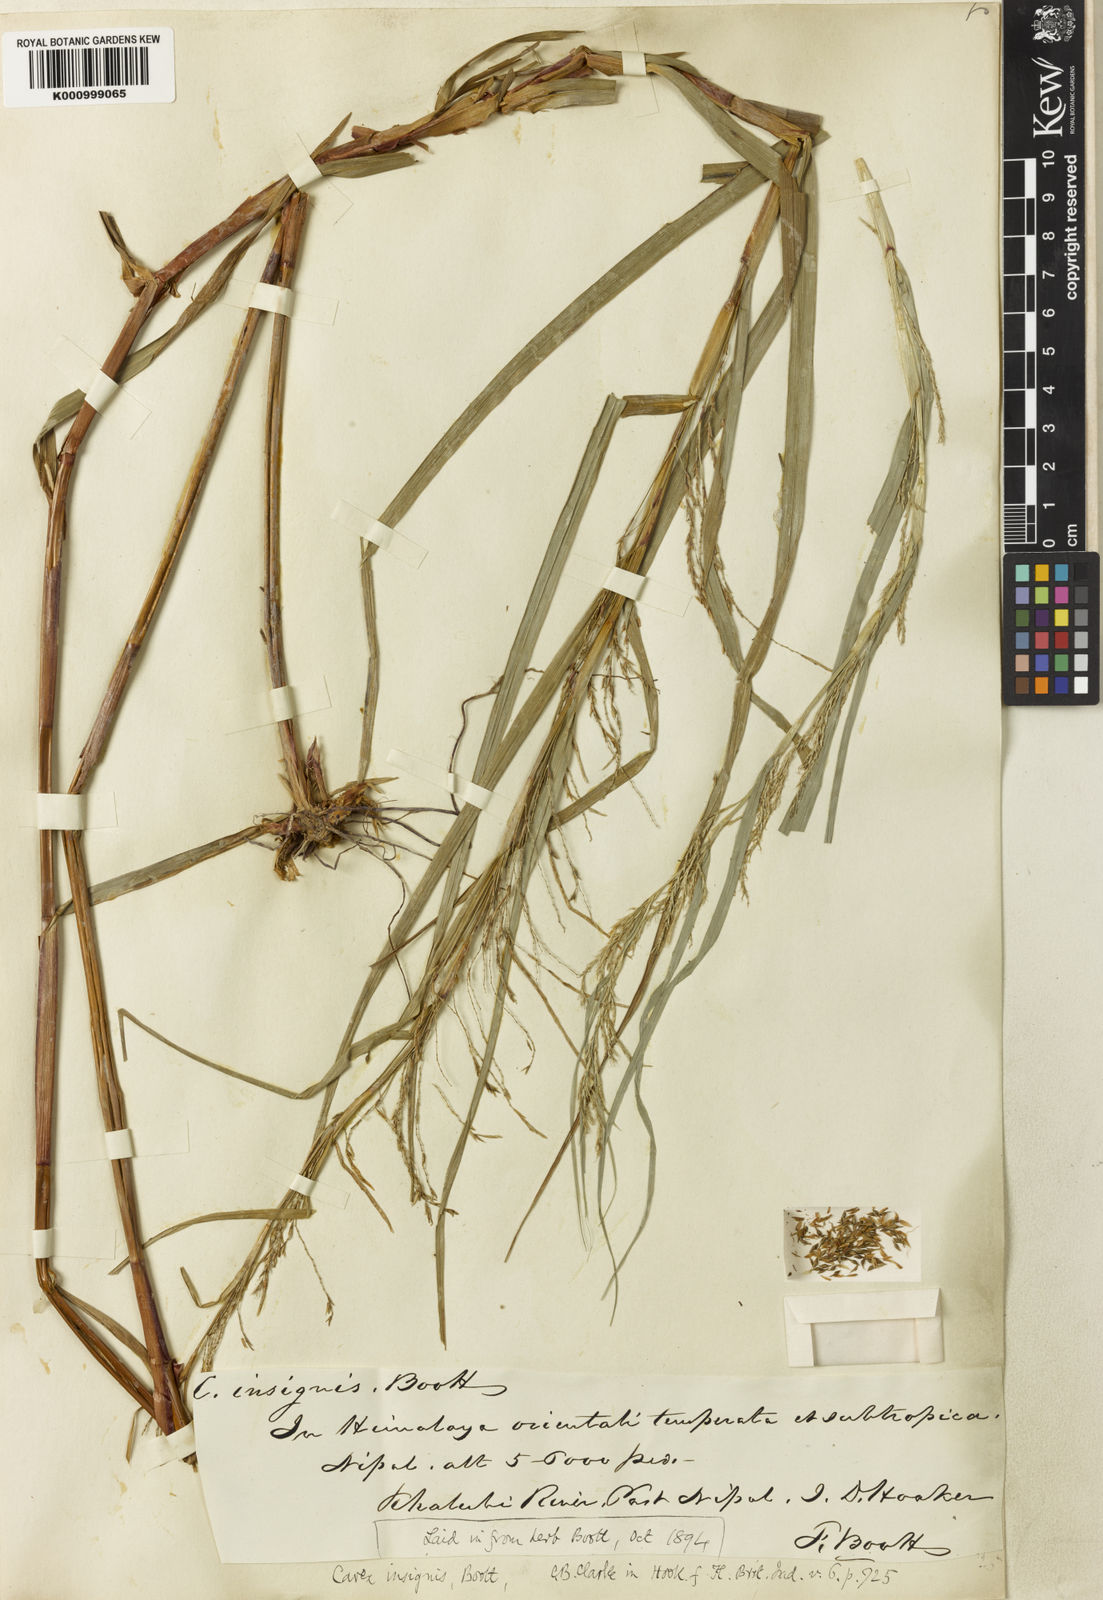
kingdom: Plantae
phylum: Tracheophyta
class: Liliopsida
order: Poales
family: Cyperaceae
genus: Carex
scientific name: Carex insignis
